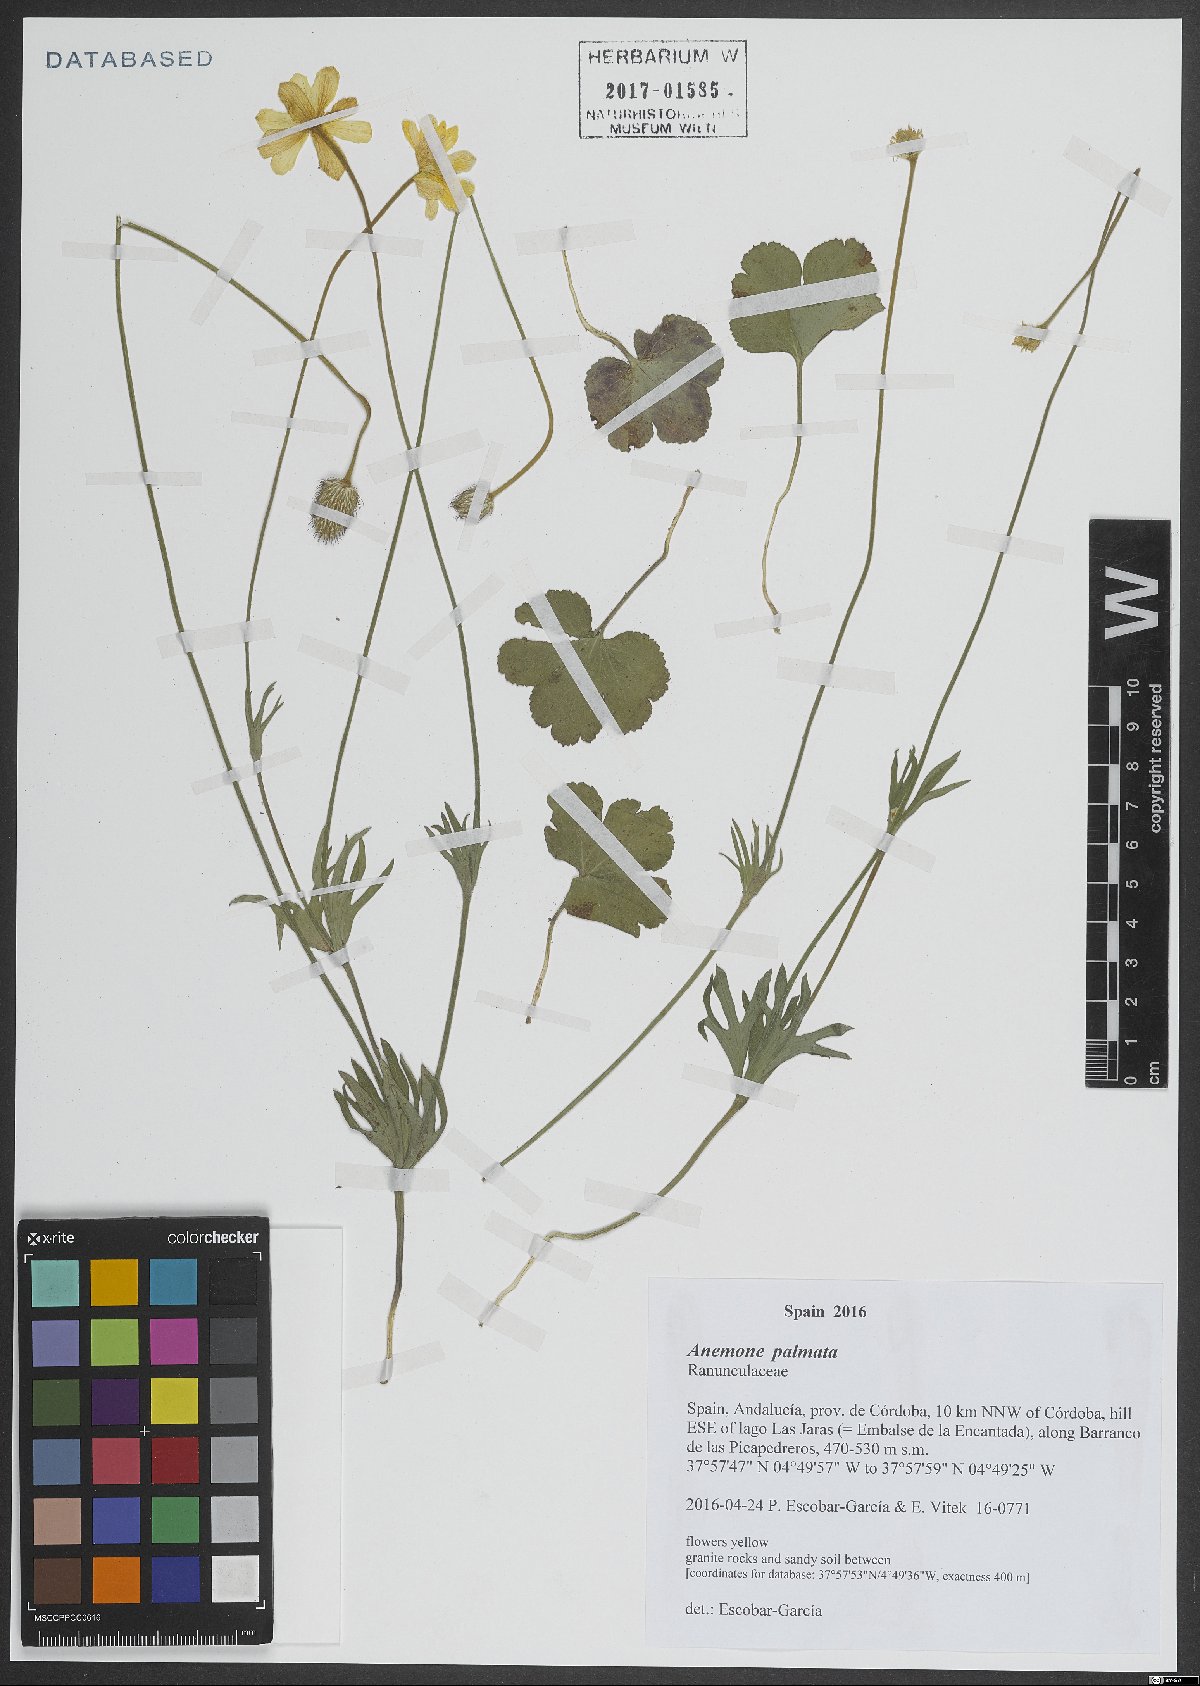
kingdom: Plantae
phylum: Tracheophyta
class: Magnoliopsida
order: Ranunculales
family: Ranunculaceae
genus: Anemone
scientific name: Anemone palmata
